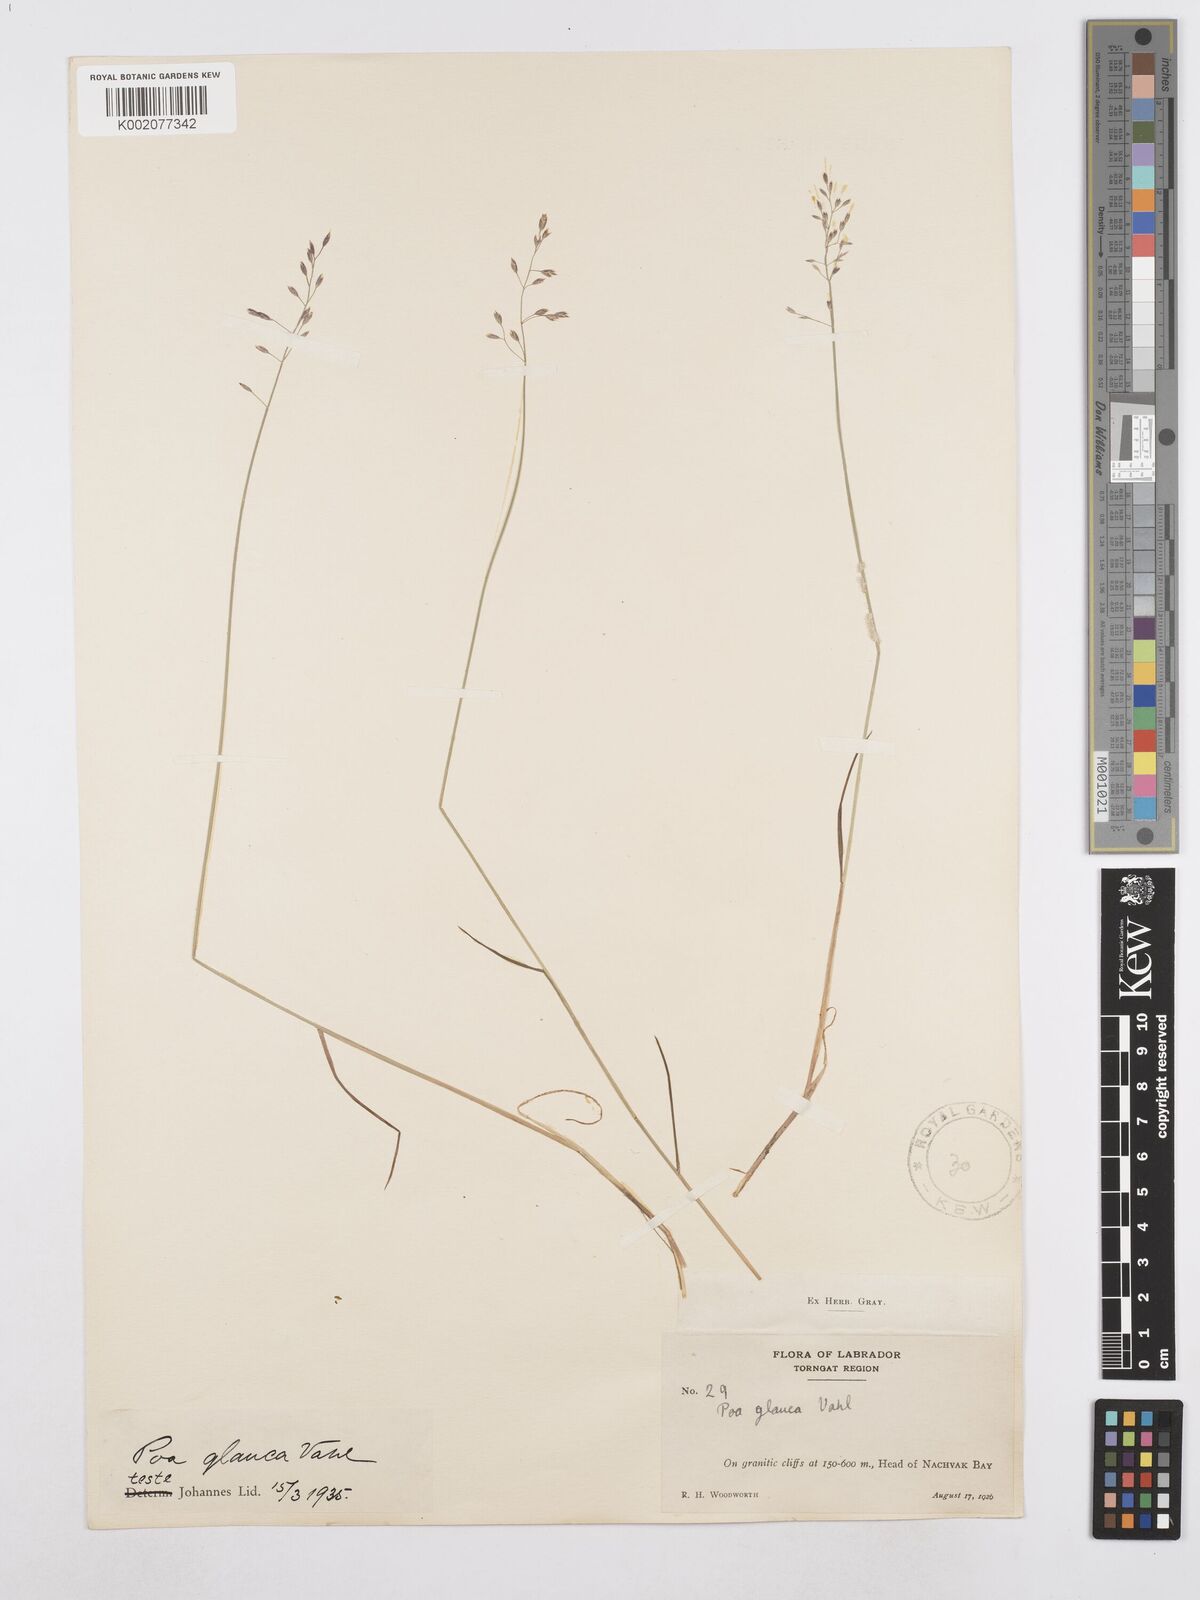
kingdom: Plantae
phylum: Tracheophyta
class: Liliopsida
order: Poales
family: Poaceae
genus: Poa
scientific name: Poa glauca
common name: Glaucous bluegrass
